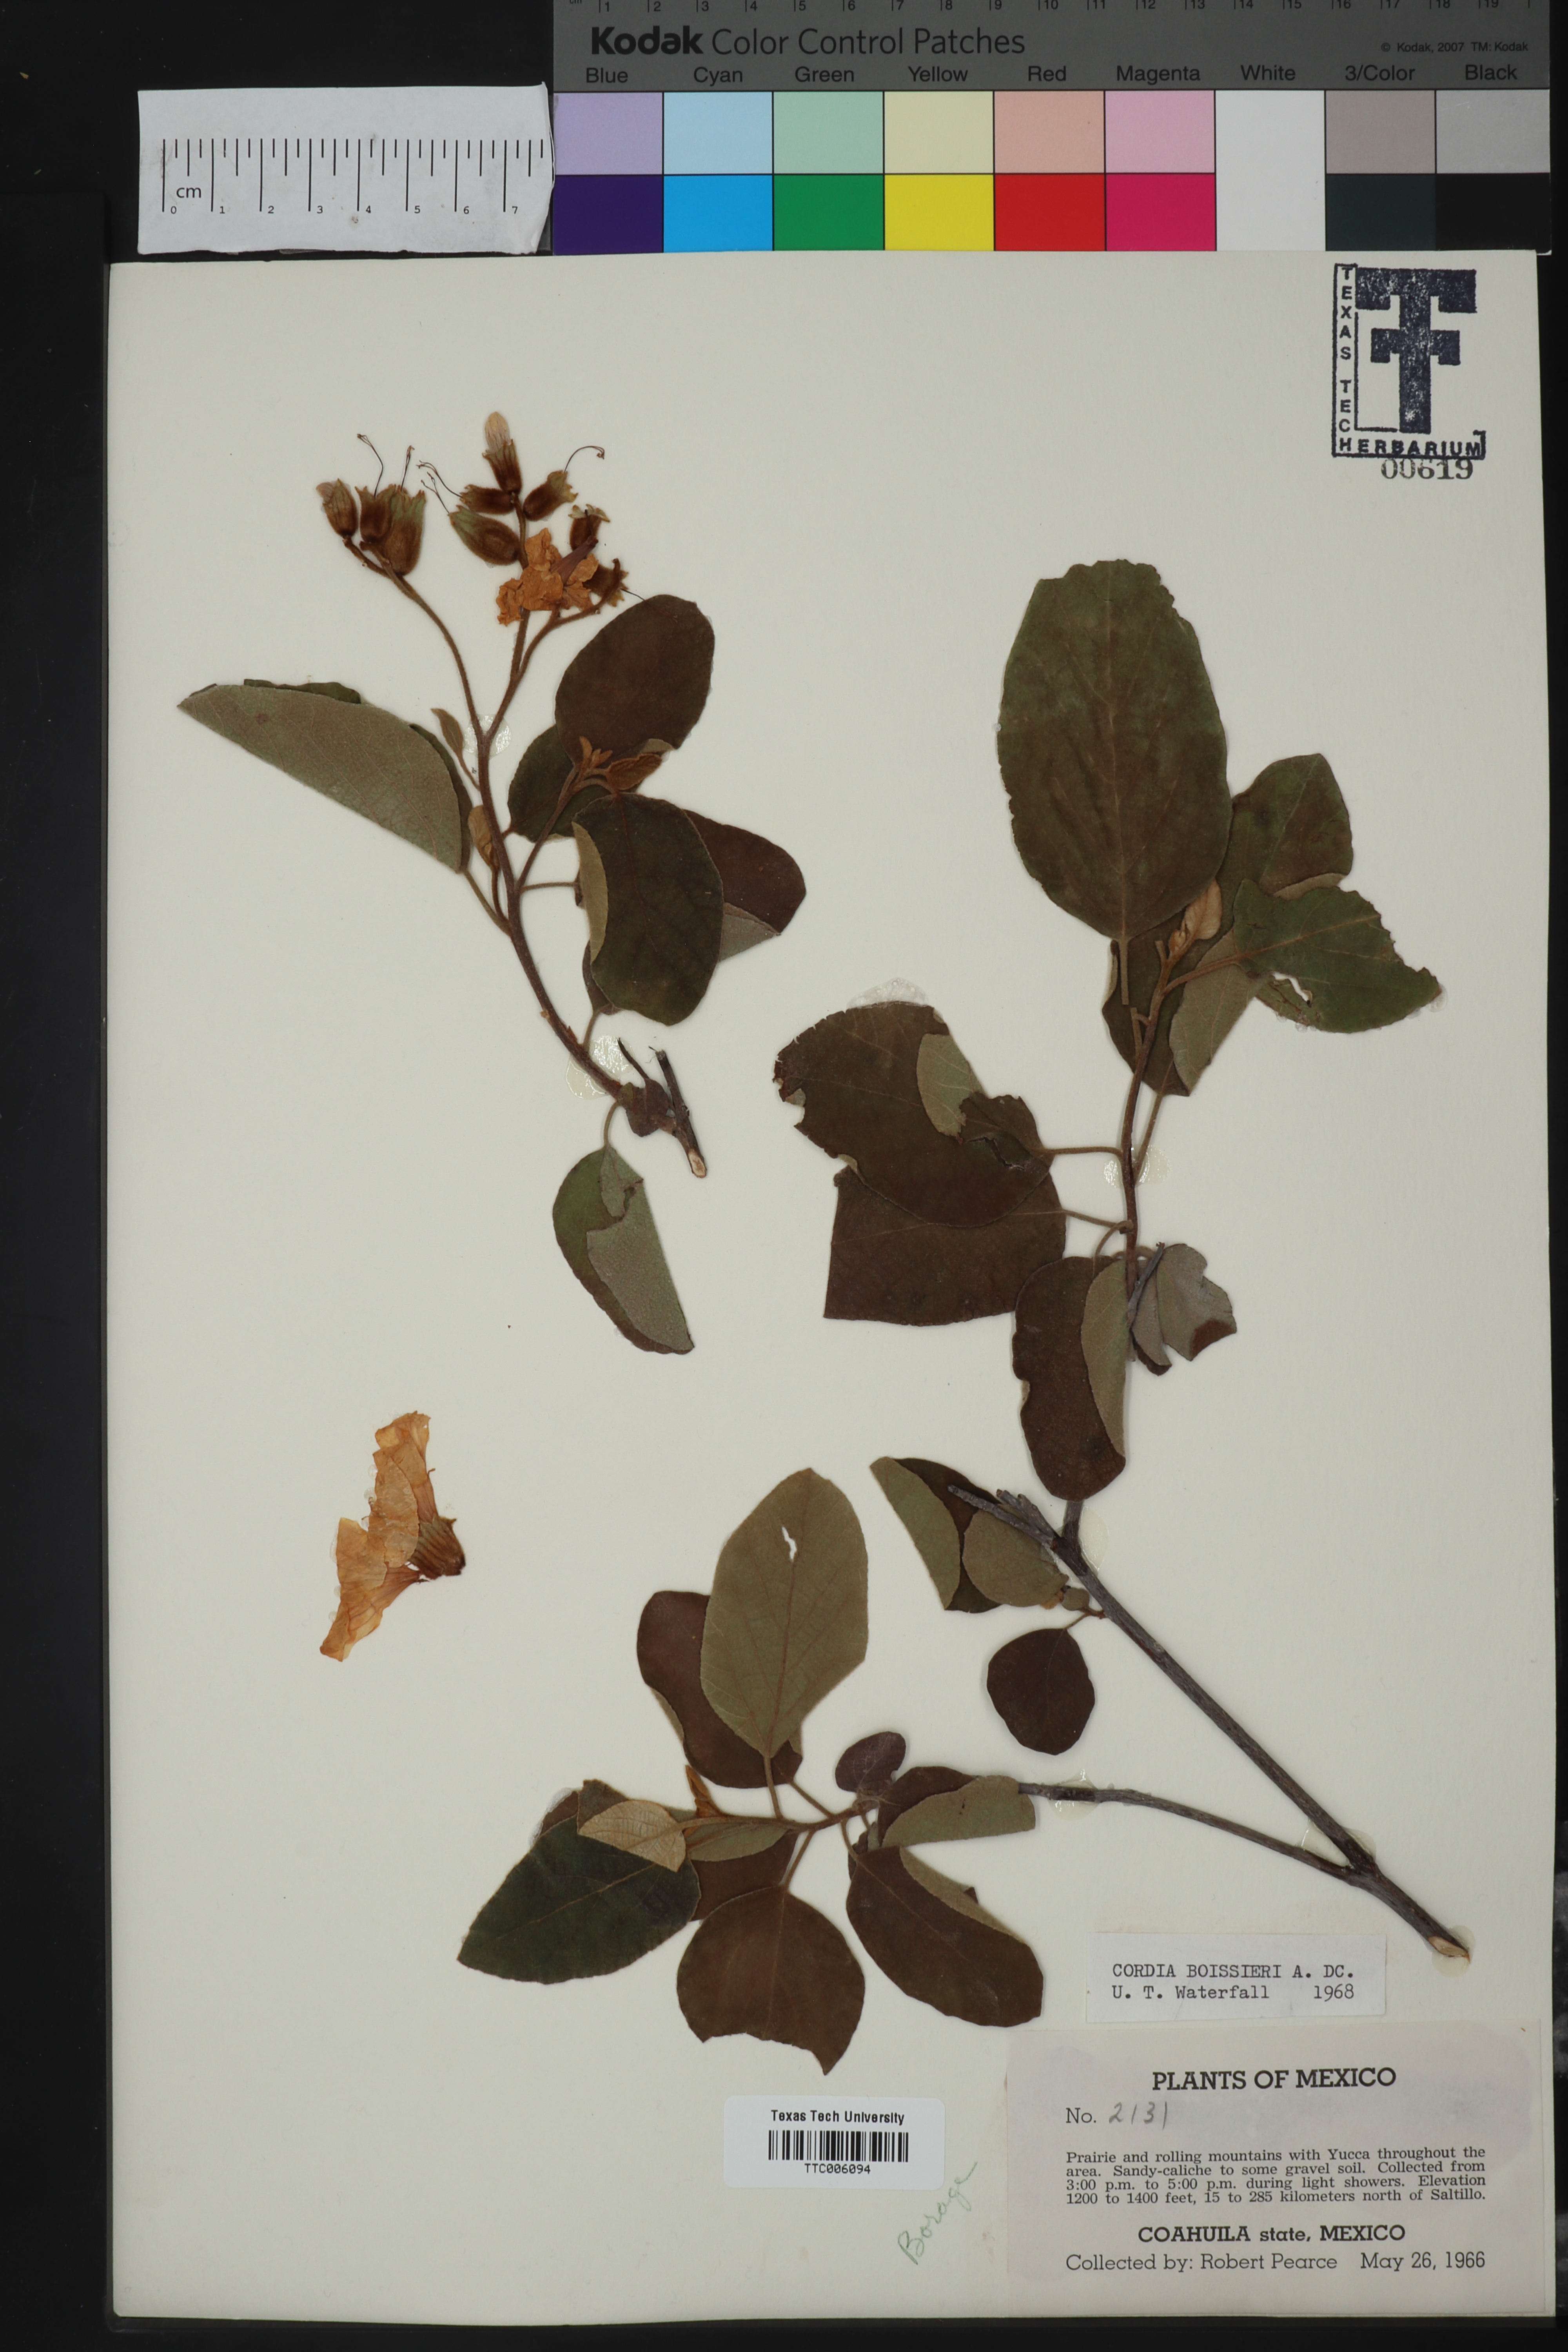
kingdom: Plantae
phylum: Tracheophyta
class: Magnoliopsida
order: Boraginales
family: Cordiaceae
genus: Cordia
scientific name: Cordia boissieri
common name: Mexican-olive
